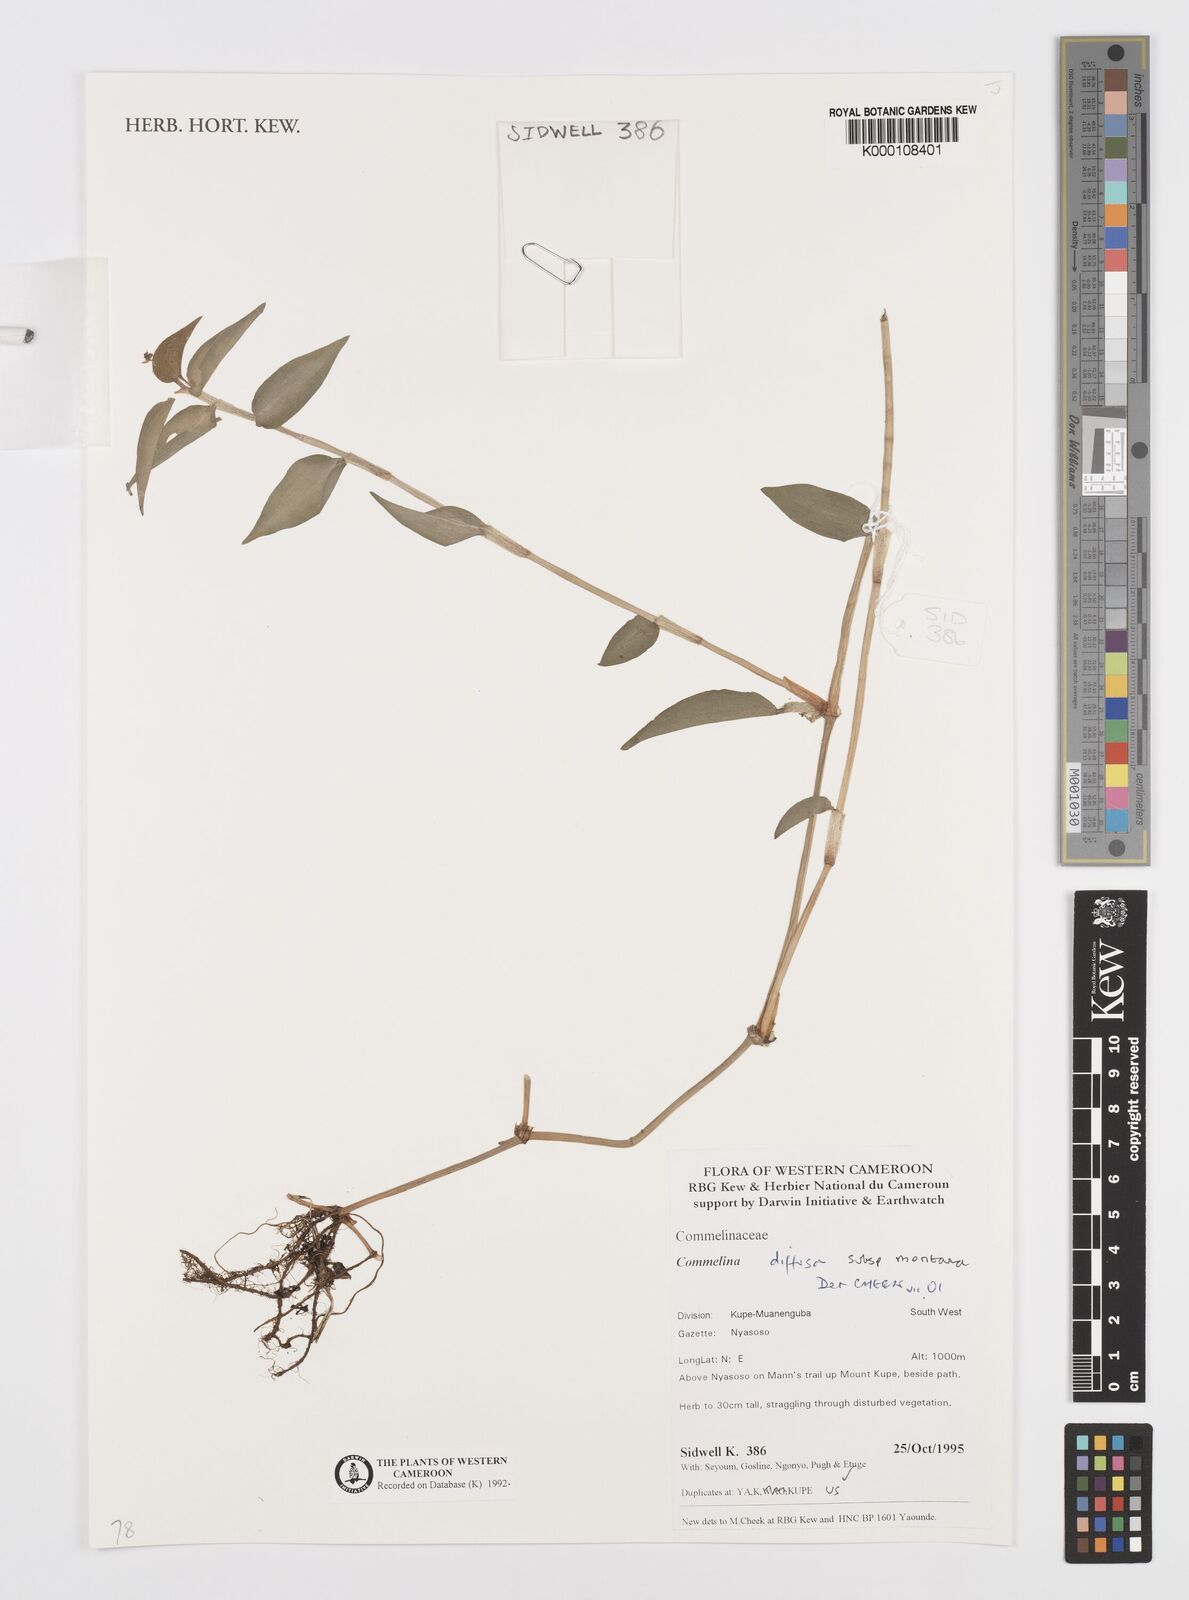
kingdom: Plantae
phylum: Tracheophyta
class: Liliopsida
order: Commelinales
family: Commelinaceae
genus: Commelina
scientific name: Commelina diffusa
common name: Climbing dayflower
